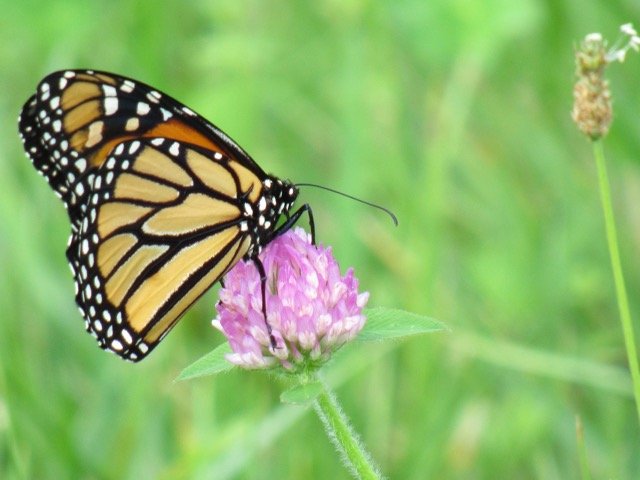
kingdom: Animalia
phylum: Arthropoda
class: Insecta
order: Lepidoptera
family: Nymphalidae
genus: Danaus
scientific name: Danaus plexippus
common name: Monarch
